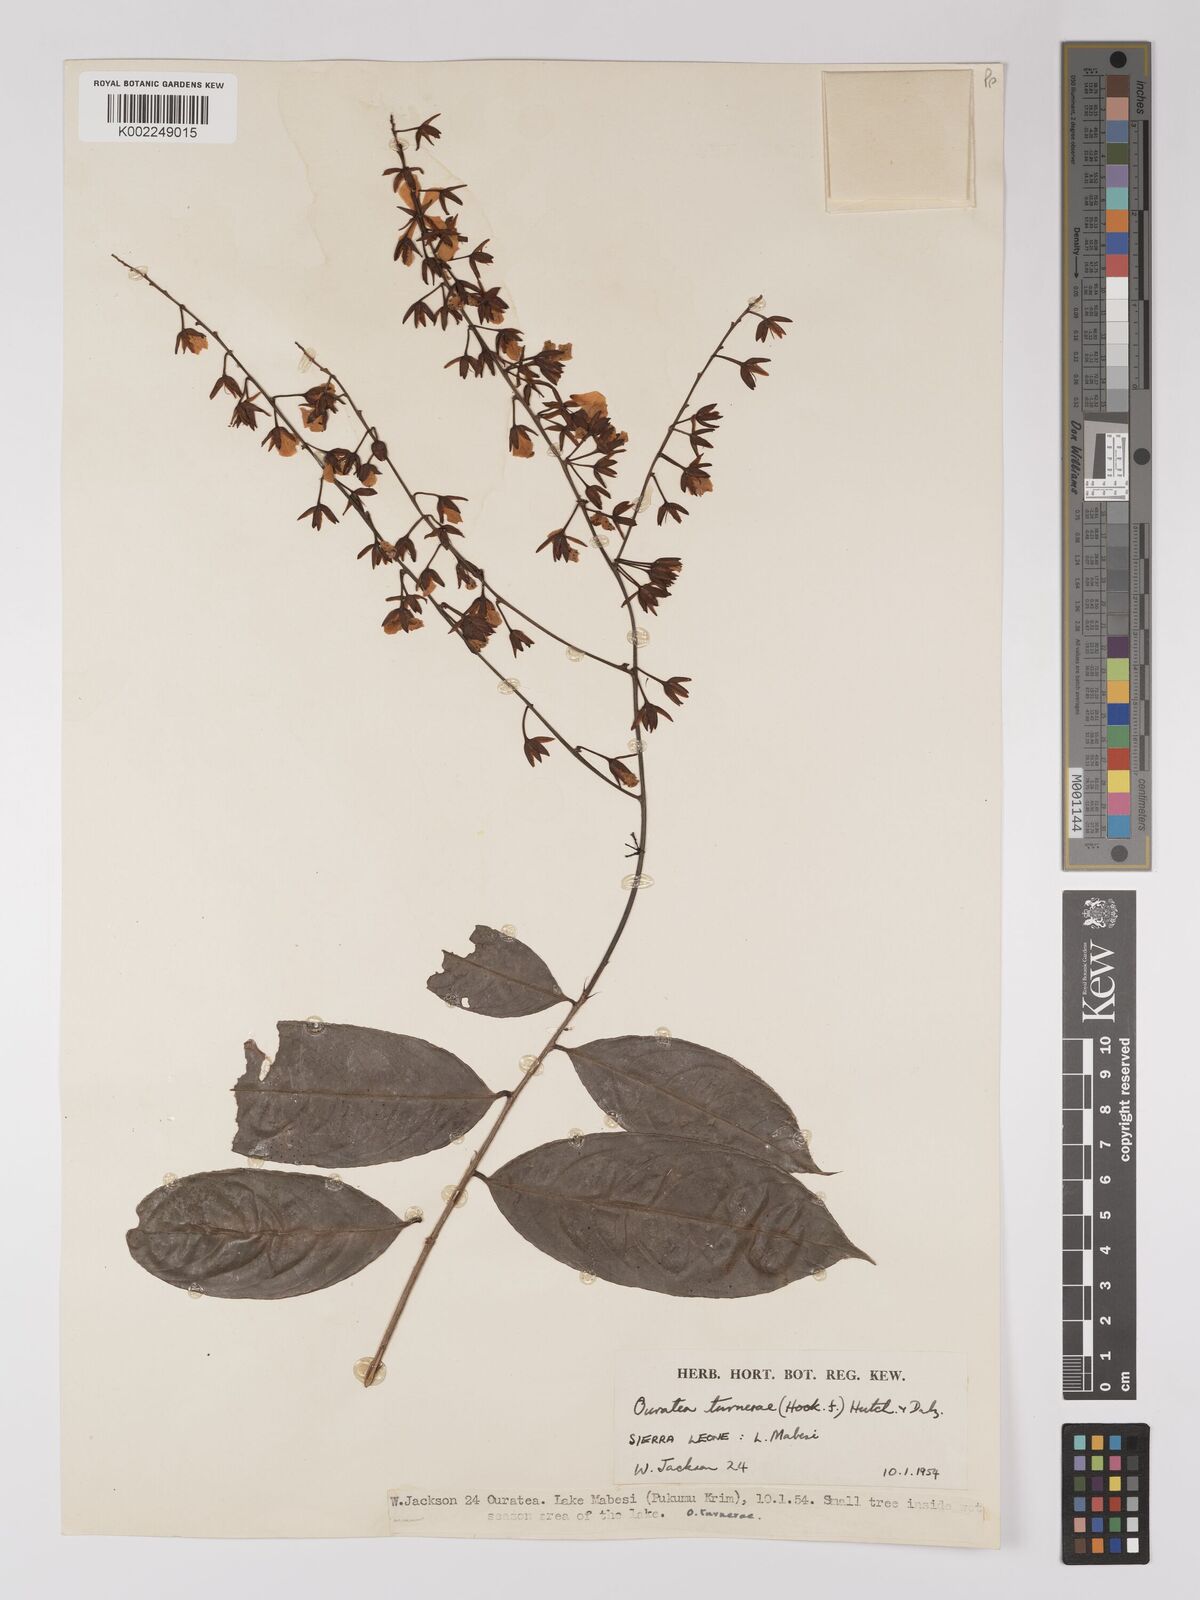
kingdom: Plantae
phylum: Tracheophyta
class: Magnoliopsida
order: Malpighiales
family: Ochnaceae
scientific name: Ochnaceae
